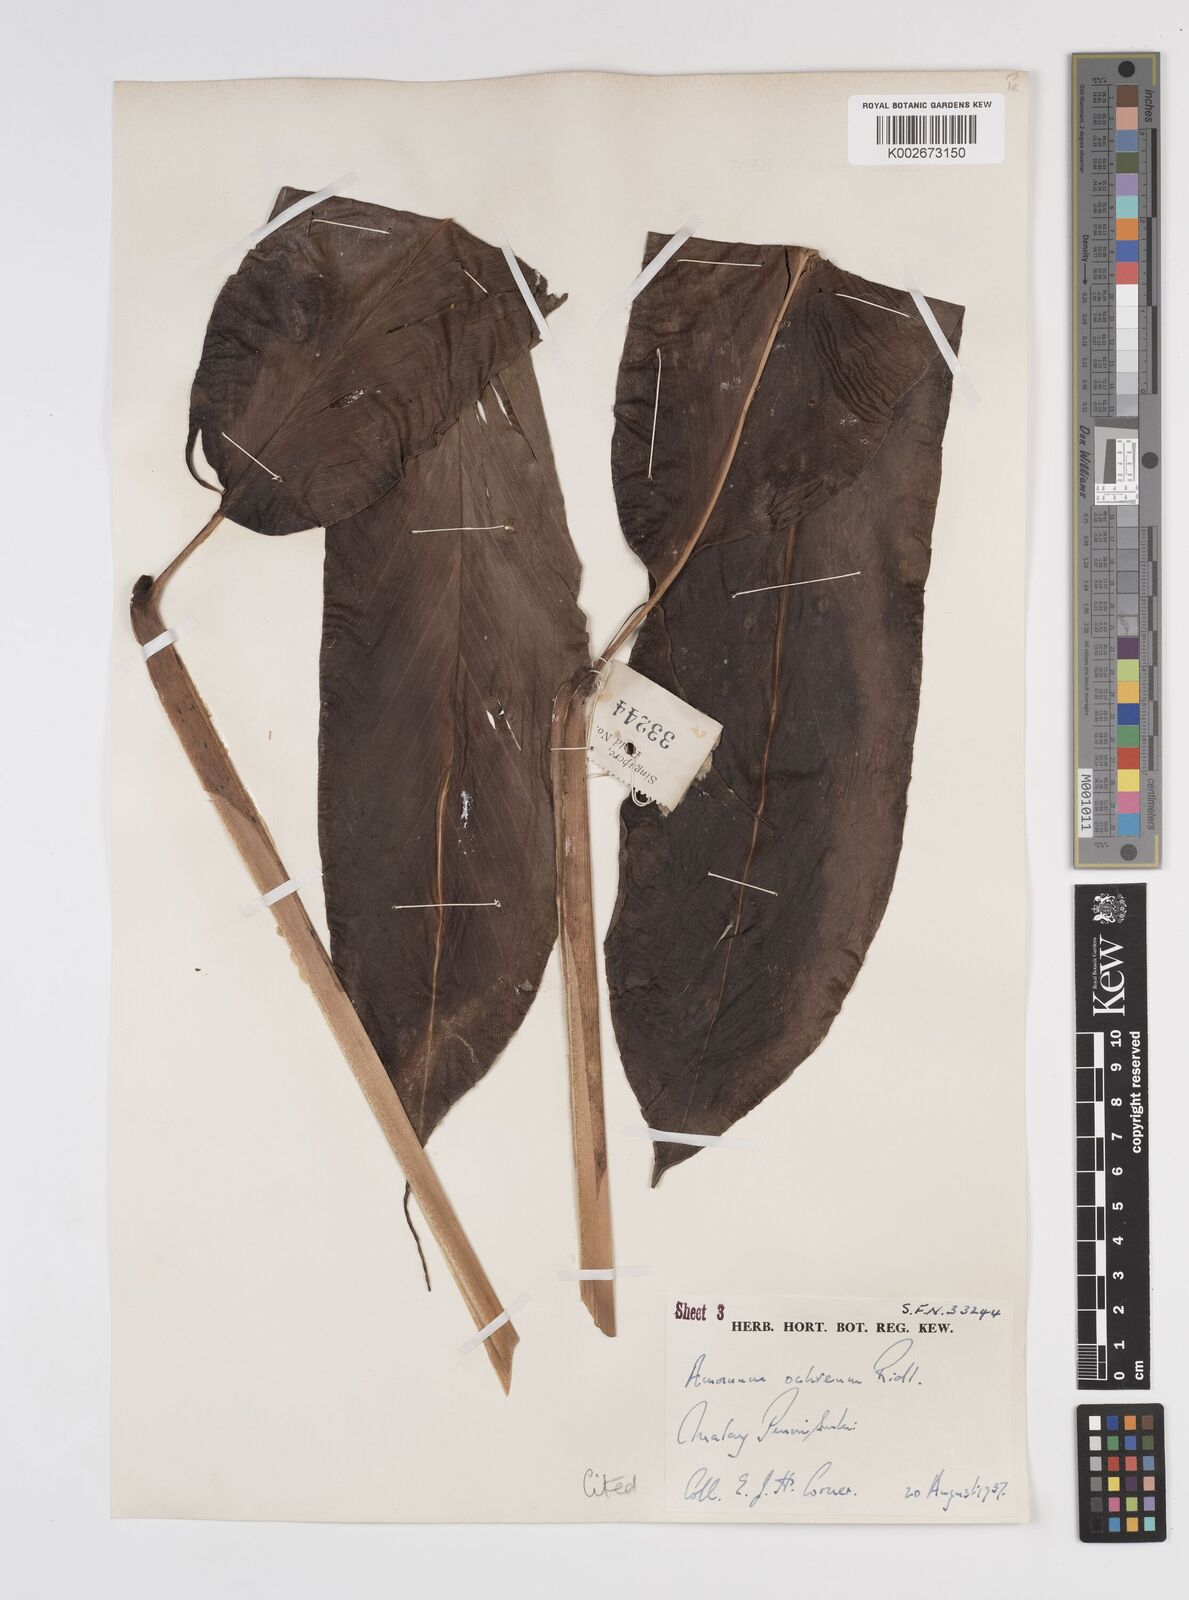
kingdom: Plantae
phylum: Tracheophyta
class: Liliopsida
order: Zingiberales
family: Zingiberaceae
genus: Meistera
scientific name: Meistera ochrea
